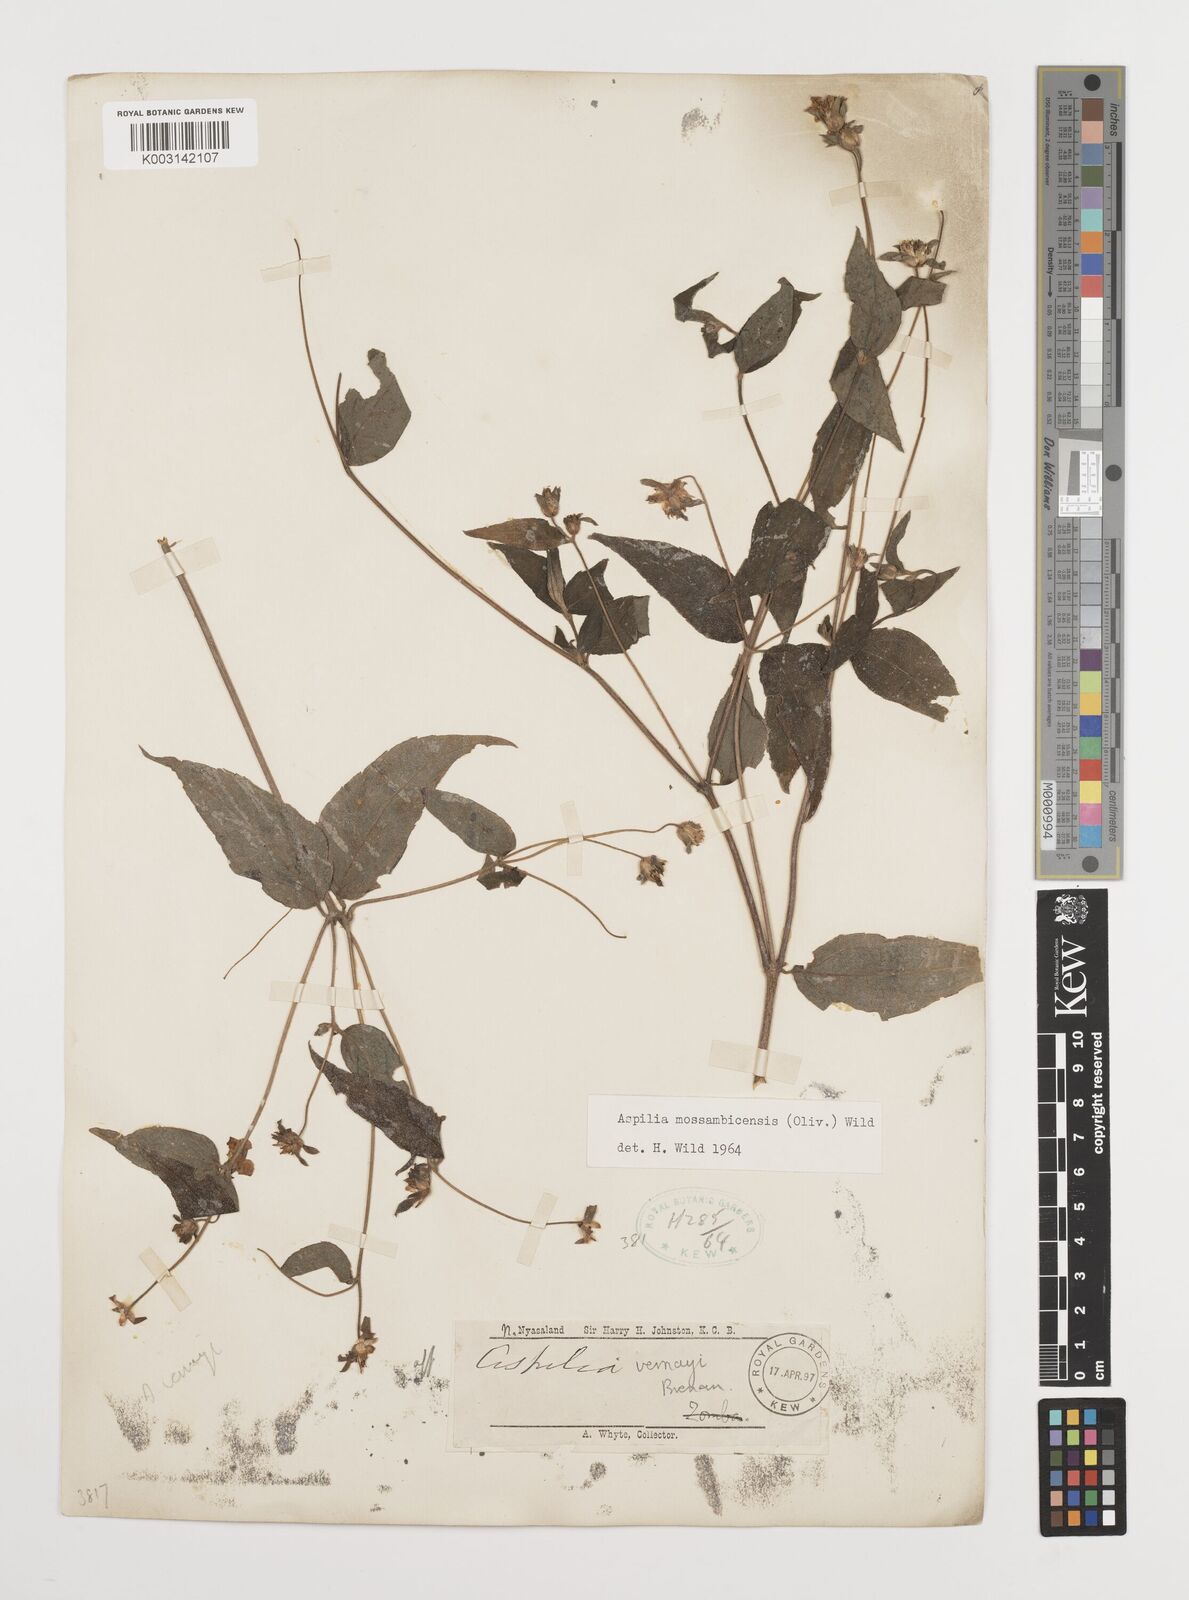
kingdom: Plantae
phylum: Tracheophyta
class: Magnoliopsida
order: Asterales
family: Asteraceae
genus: Aspilia
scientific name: Aspilia mossambicensis
